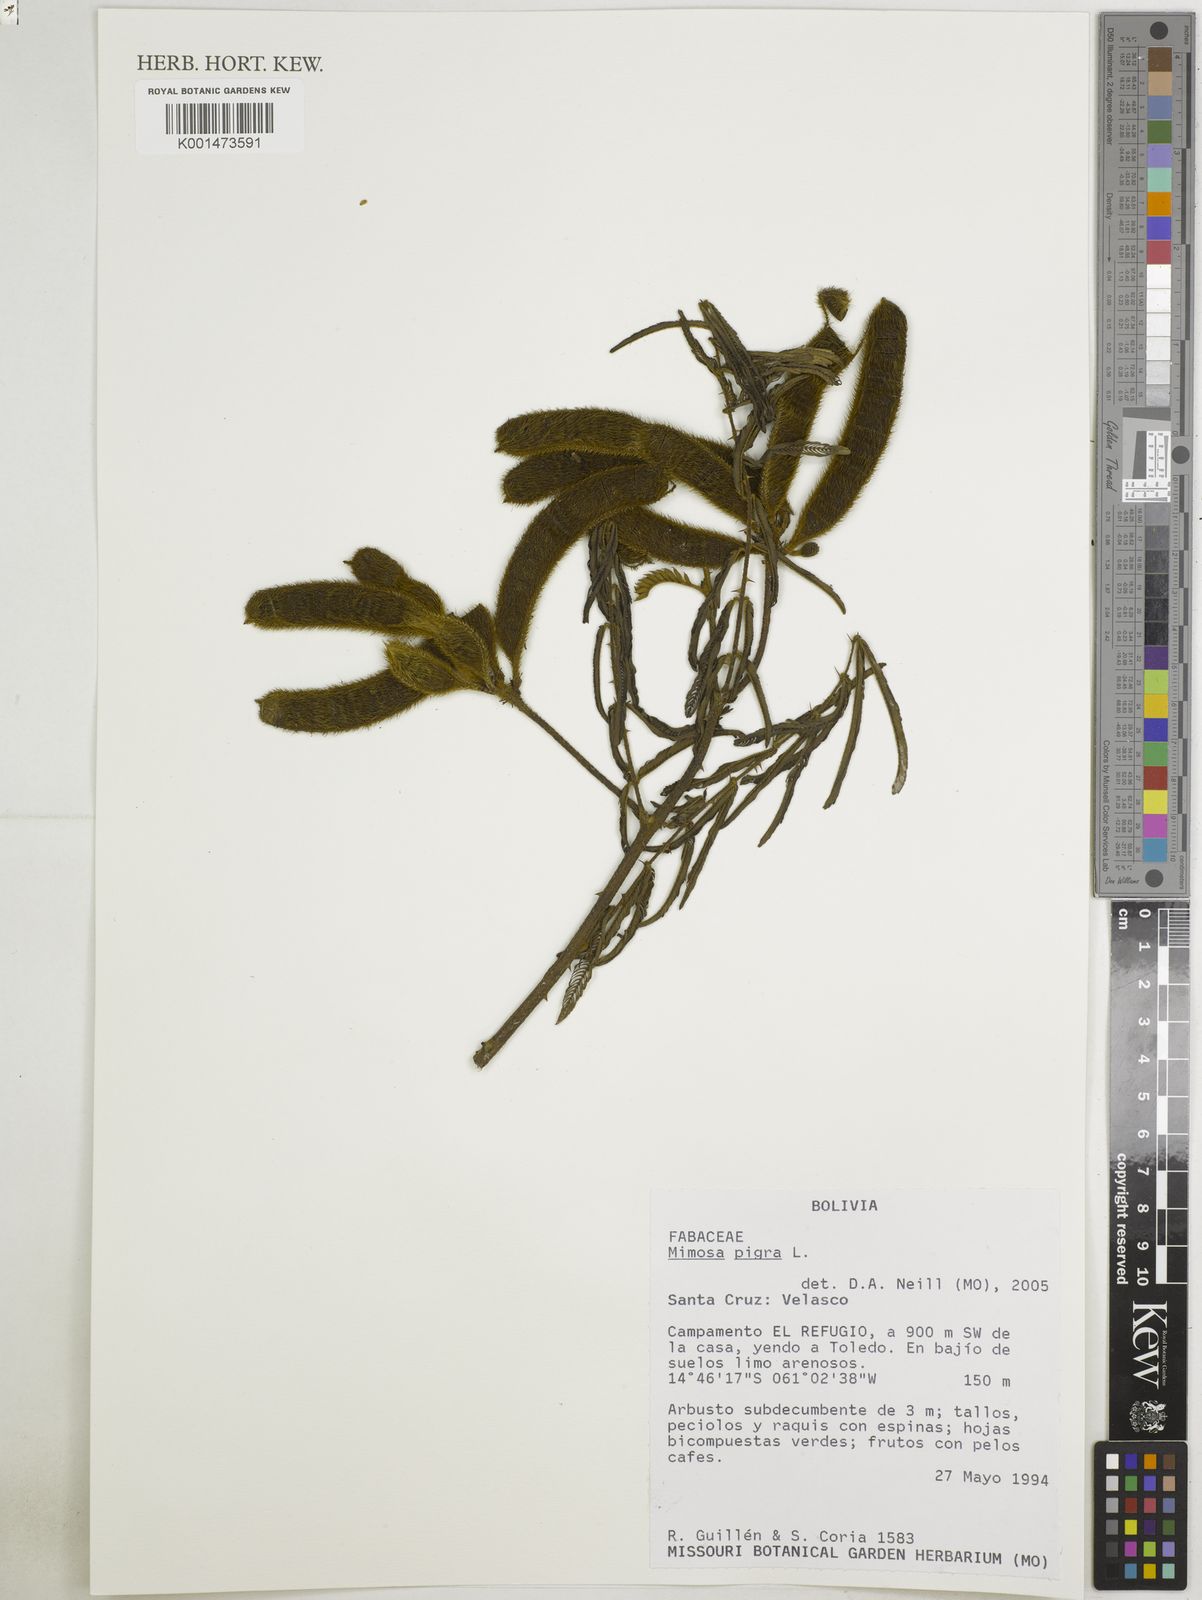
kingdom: Plantae
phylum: Tracheophyta
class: Magnoliopsida
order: Fabales
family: Fabaceae
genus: Mimosa
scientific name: Mimosa pigra
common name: Black mimosa
